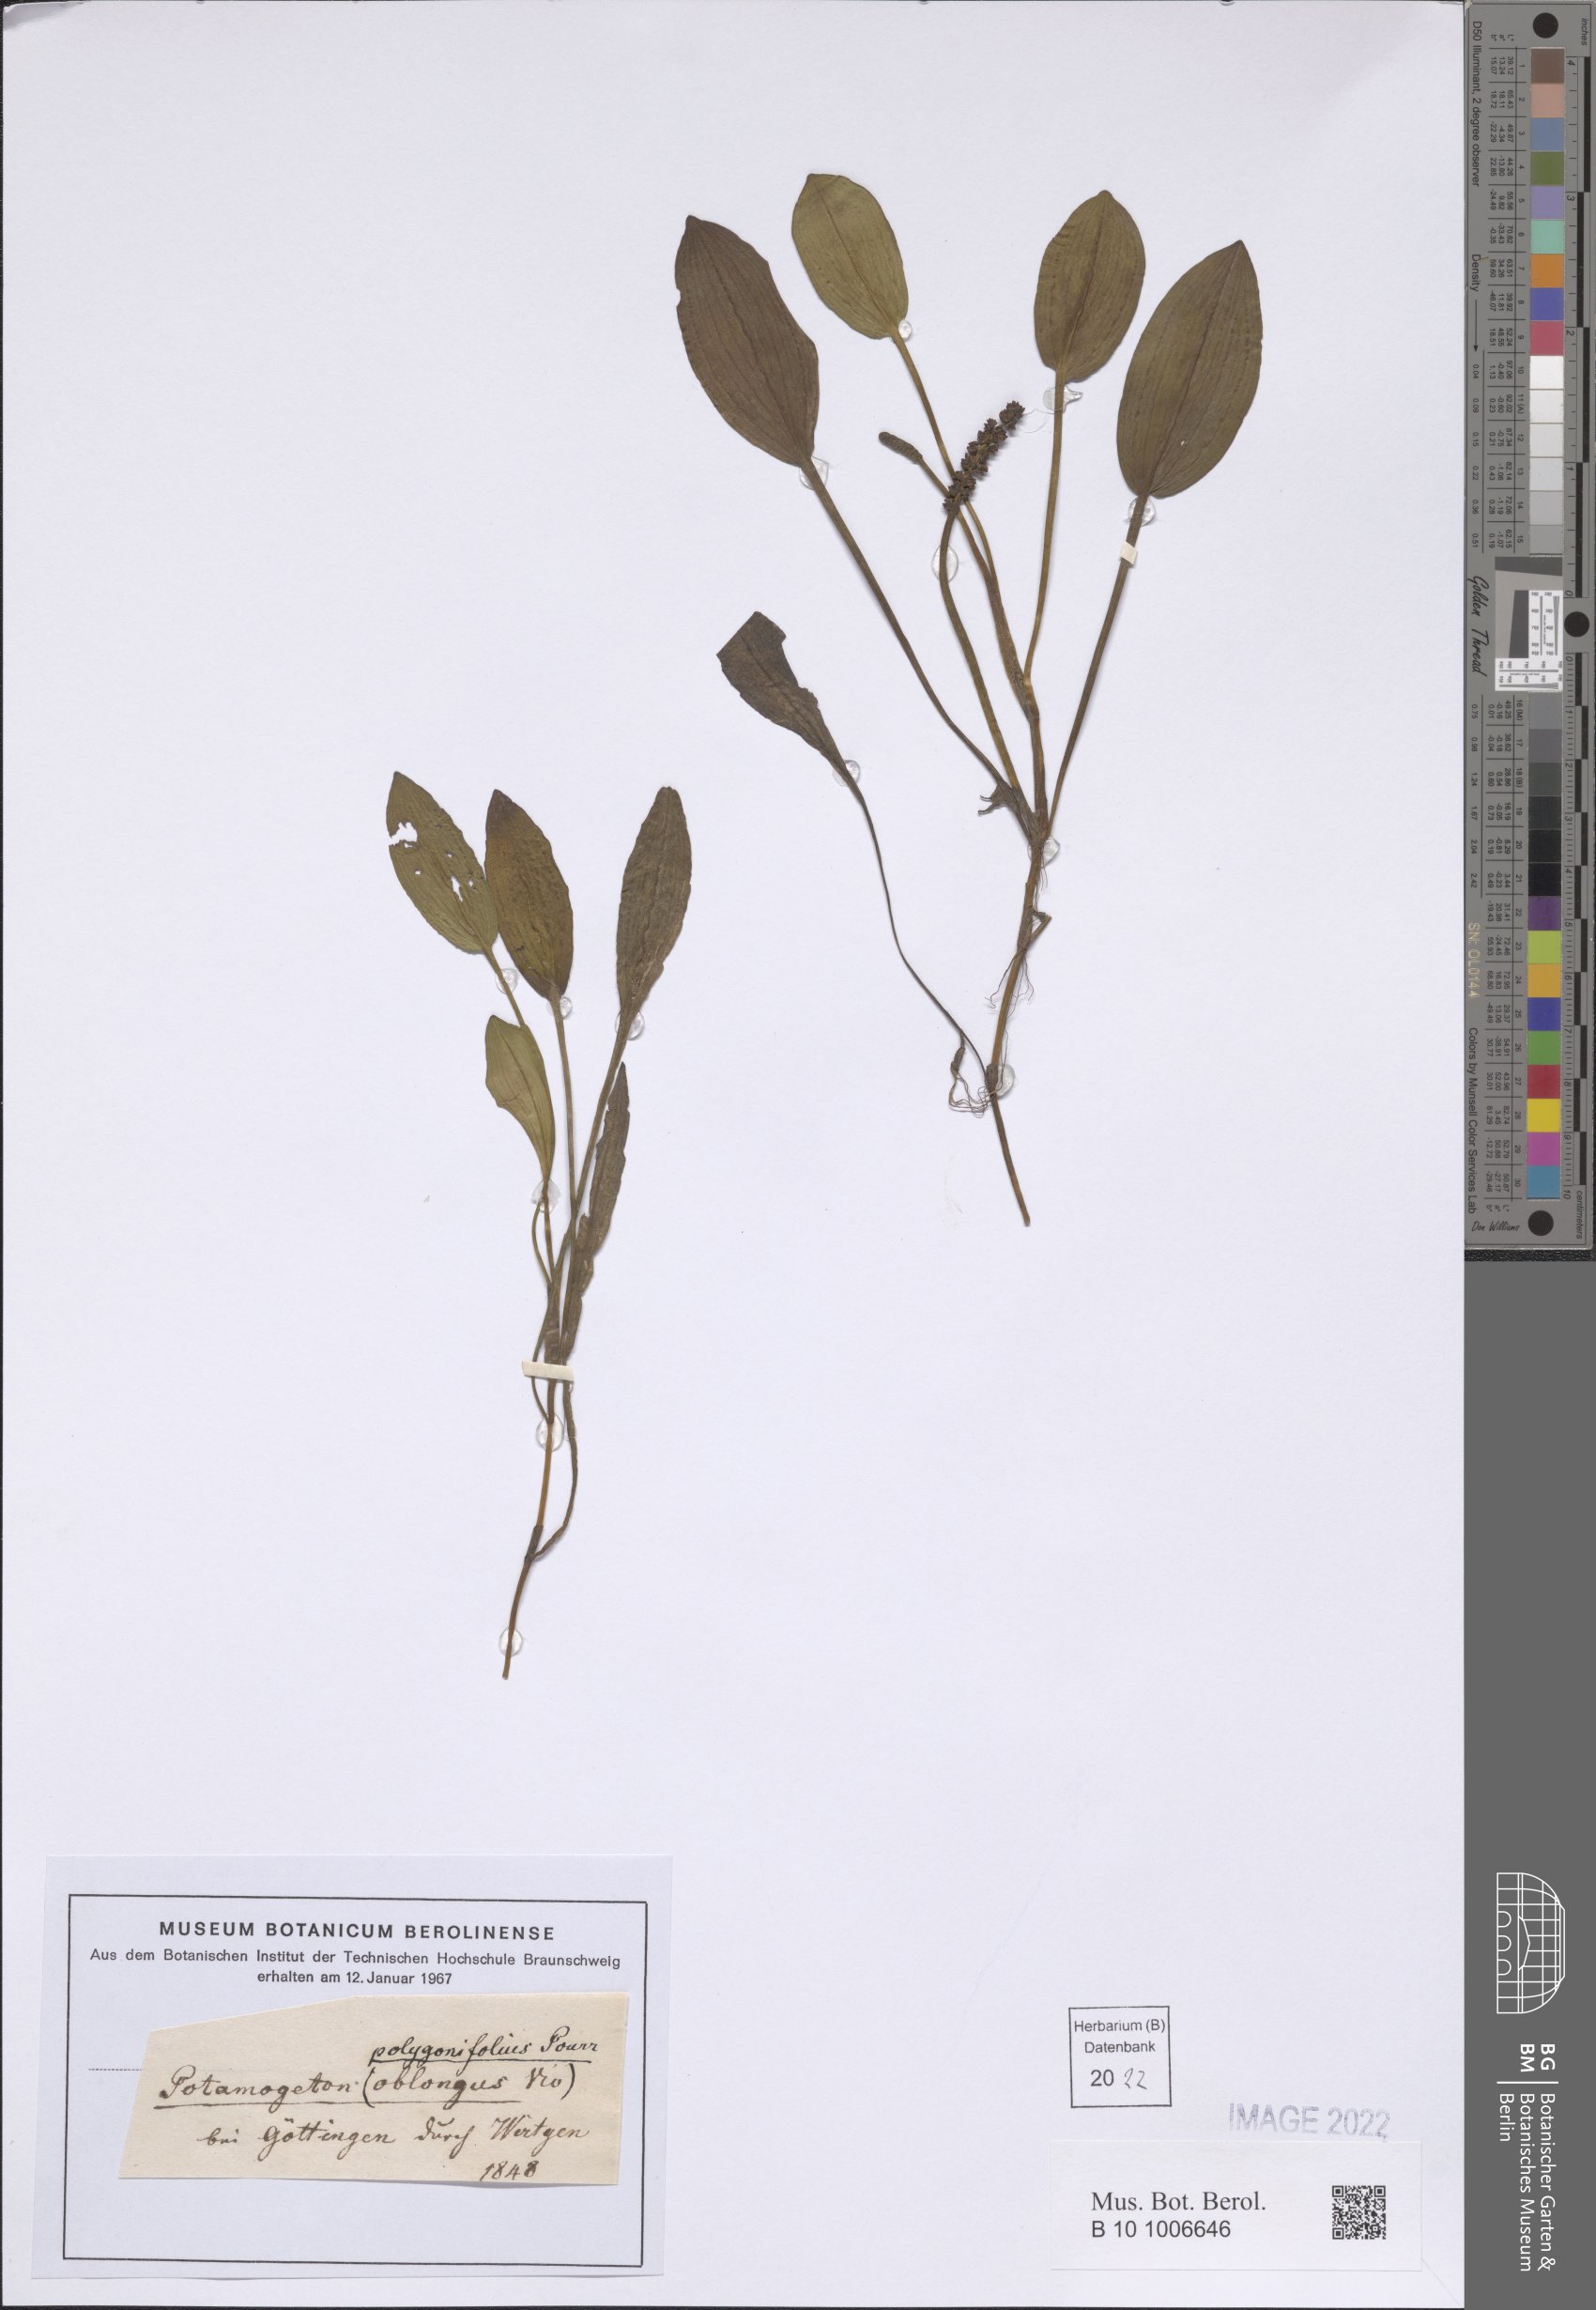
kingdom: Plantae
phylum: Tracheophyta
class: Liliopsida
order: Alismatales
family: Potamogetonaceae
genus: Potamogeton
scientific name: Potamogeton polygonifolius
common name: Bog pondweed
